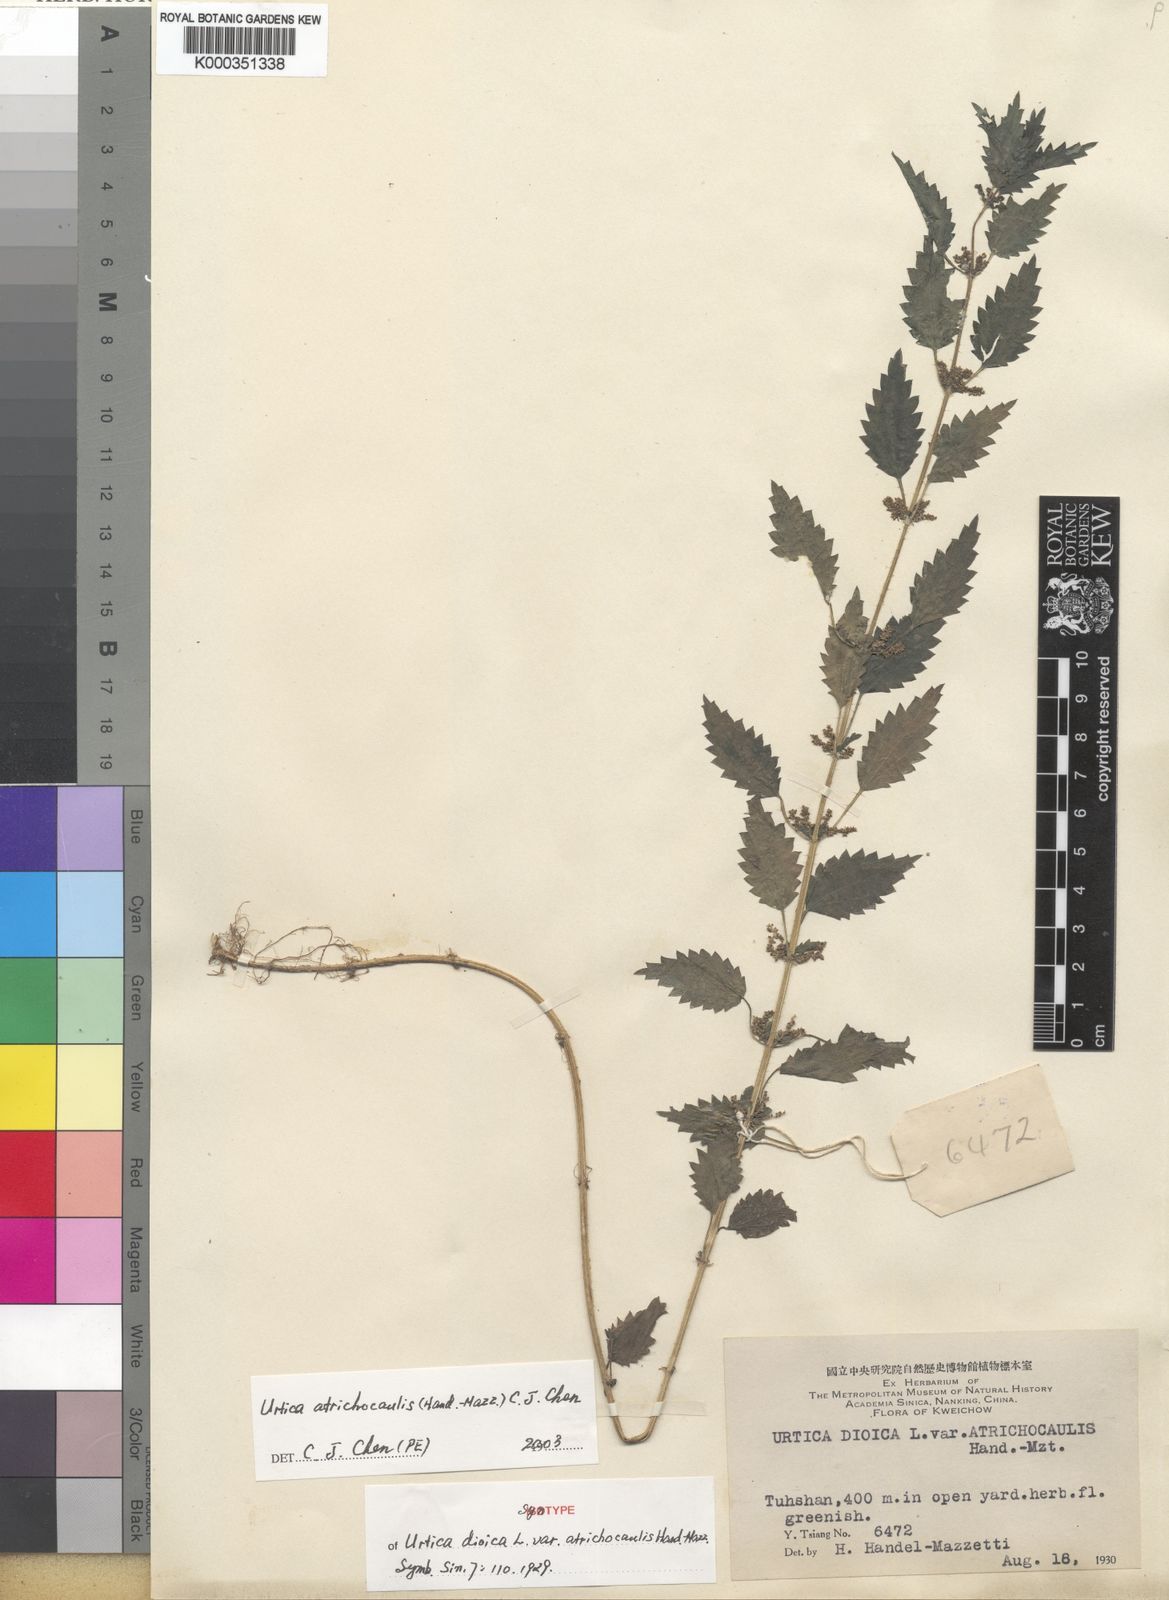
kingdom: Plantae
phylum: Tracheophyta
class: Magnoliopsida
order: Rosales
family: Urticaceae
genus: Urtica
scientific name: Urtica atrichocaulis
